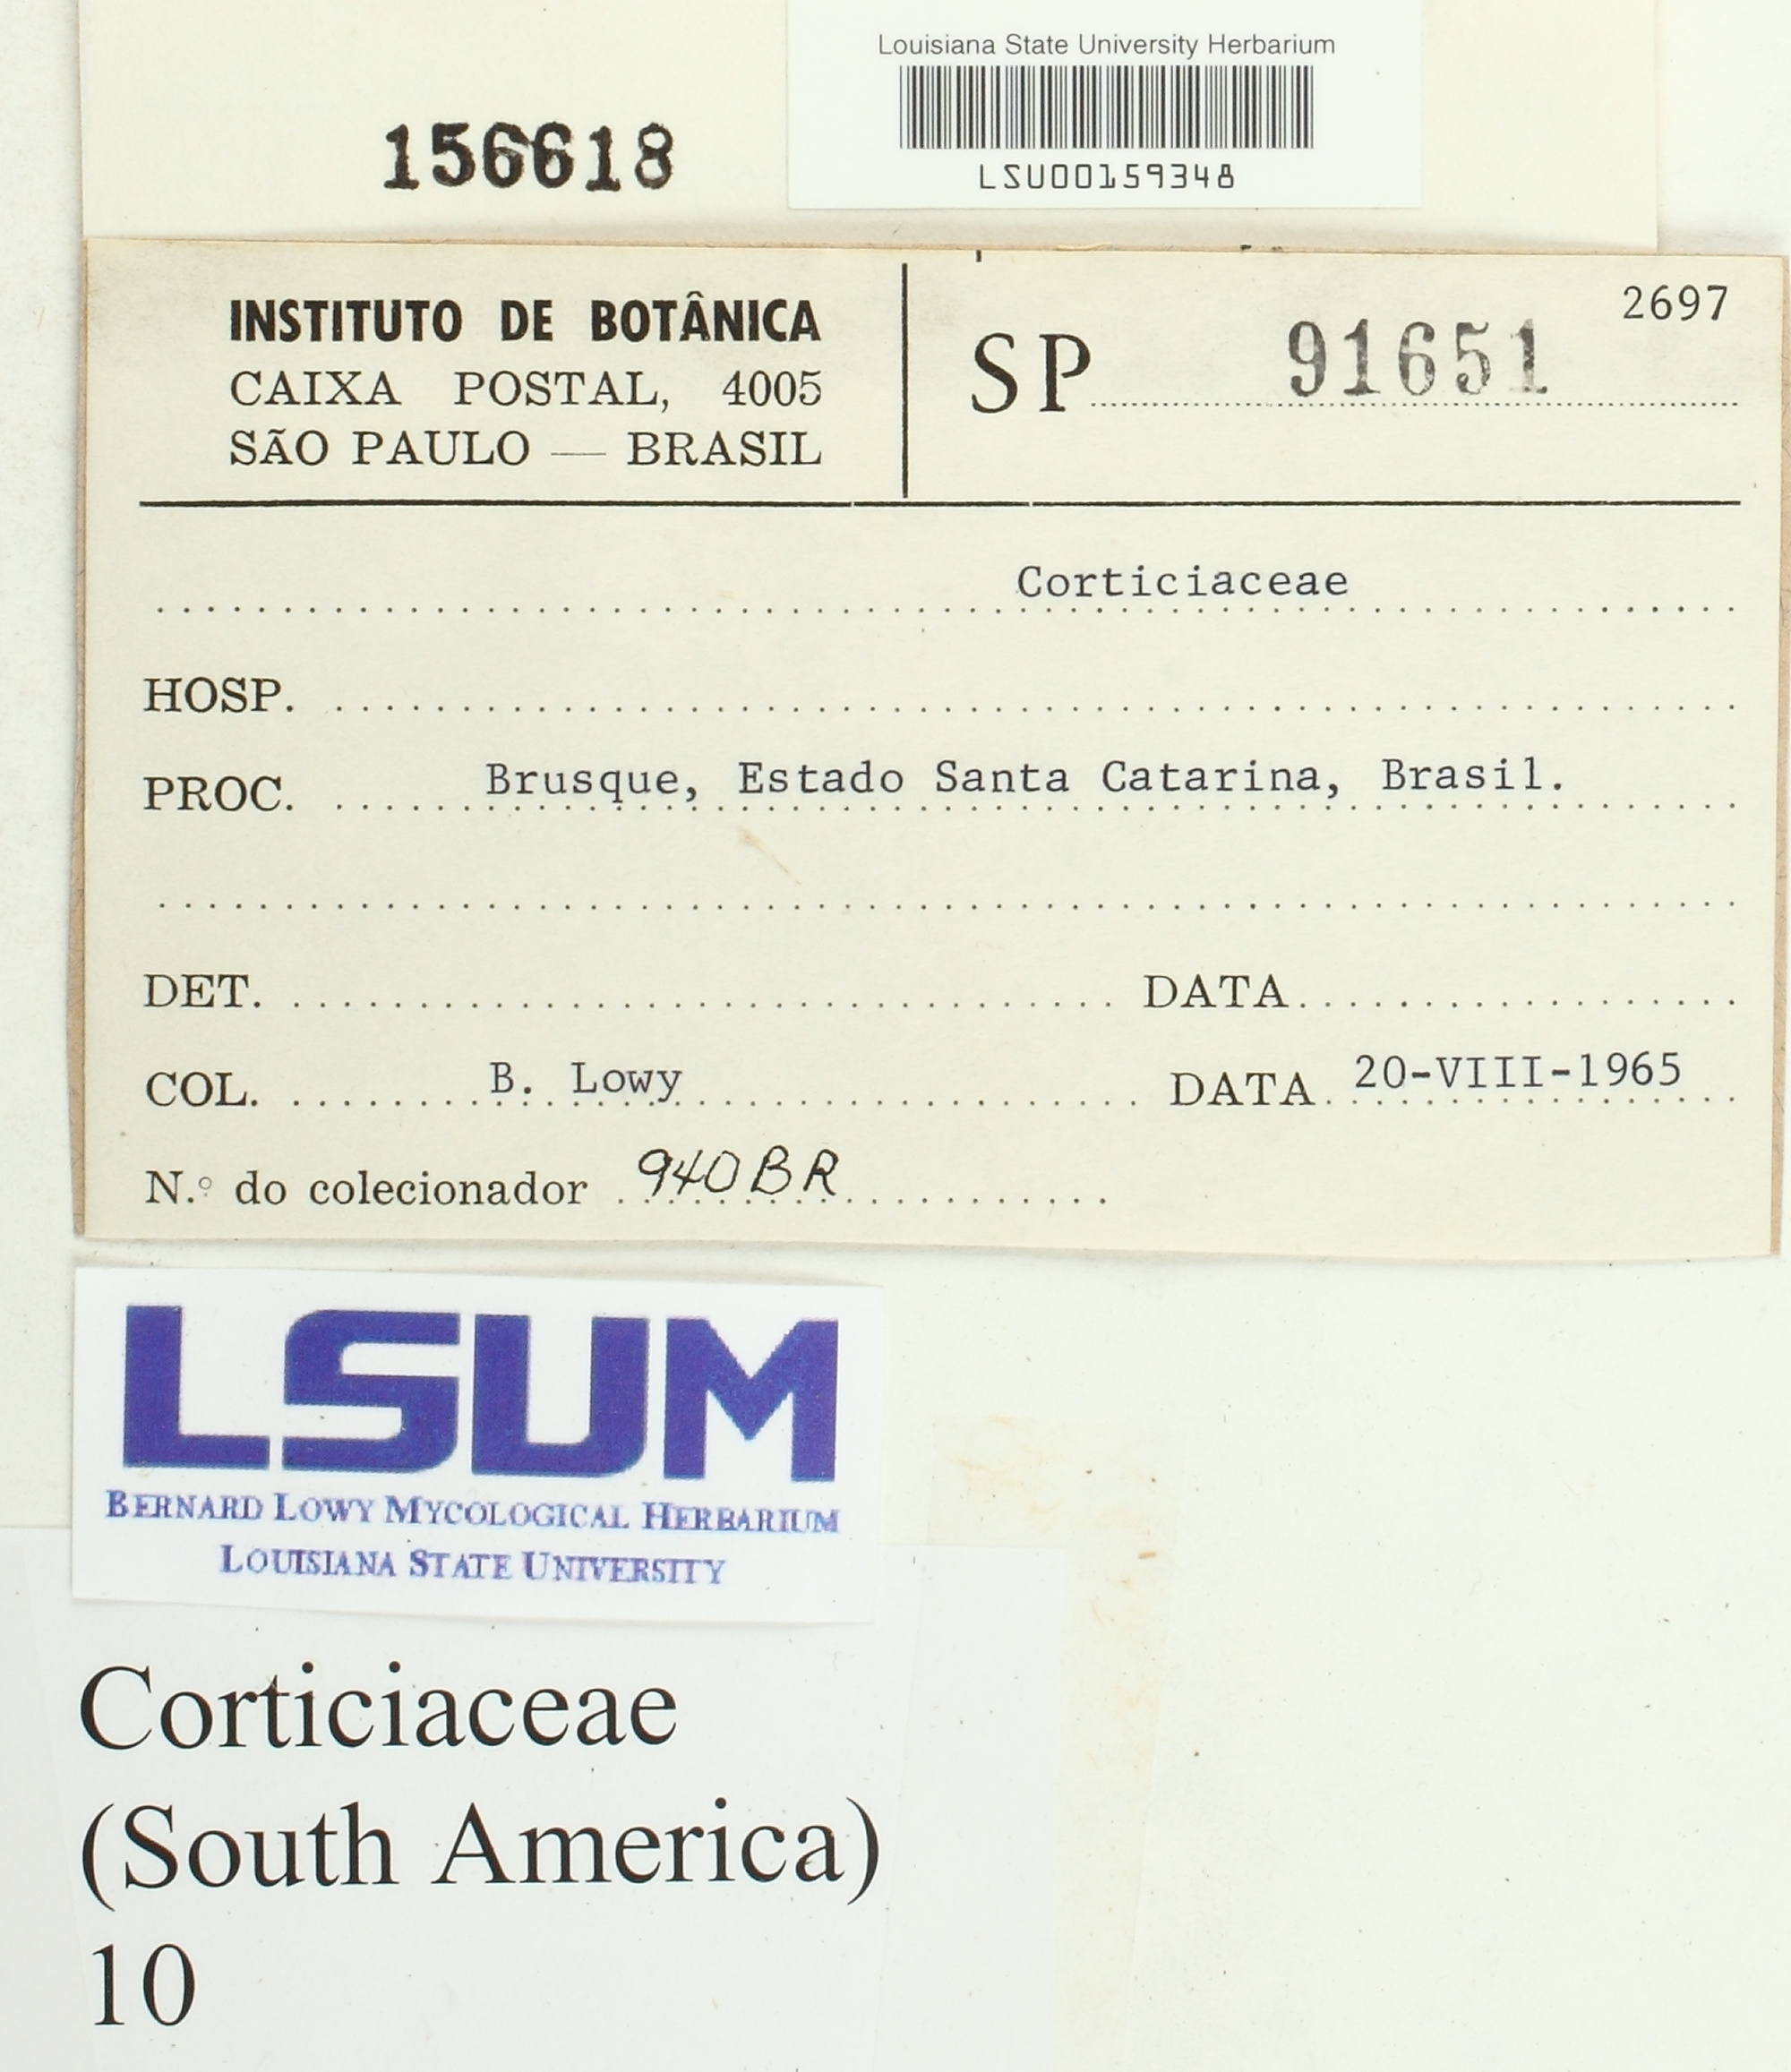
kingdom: Fungi
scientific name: Fungi
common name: Fungi
